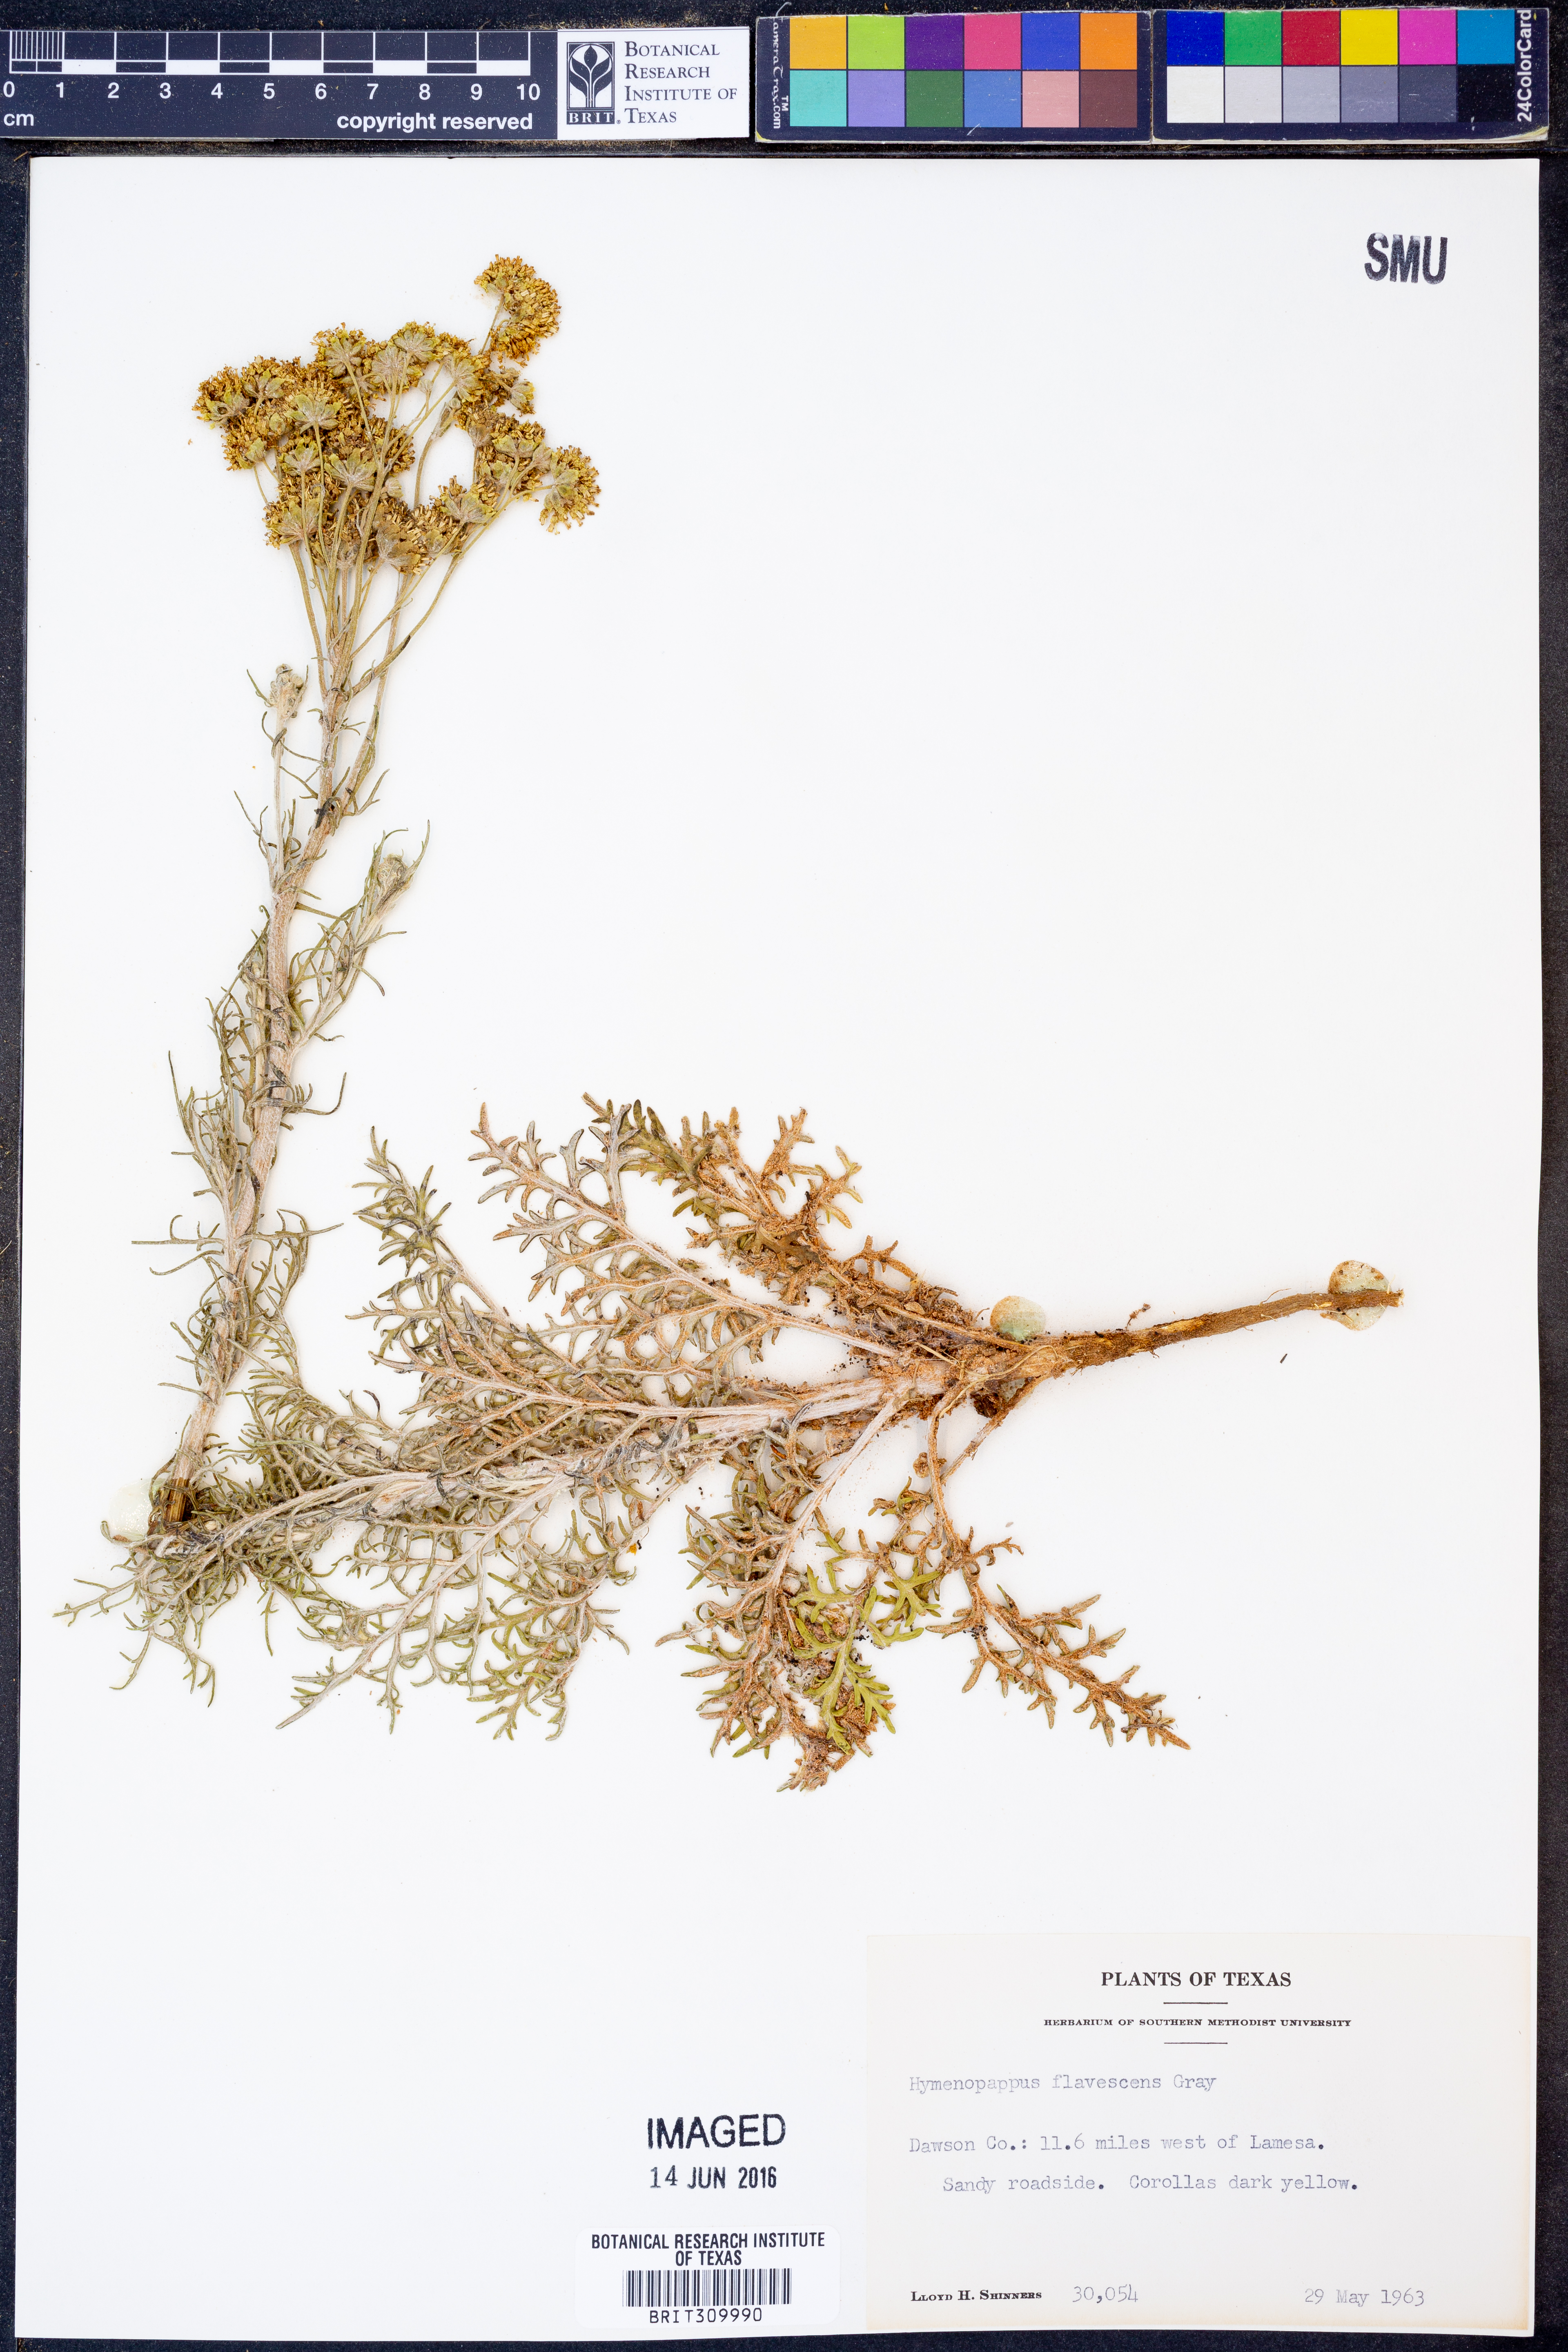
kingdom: Plantae
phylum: Tracheophyta
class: Magnoliopsida
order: Asterales
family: Asteraceae
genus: Hymenopappus
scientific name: Hymenopappus flavescens
